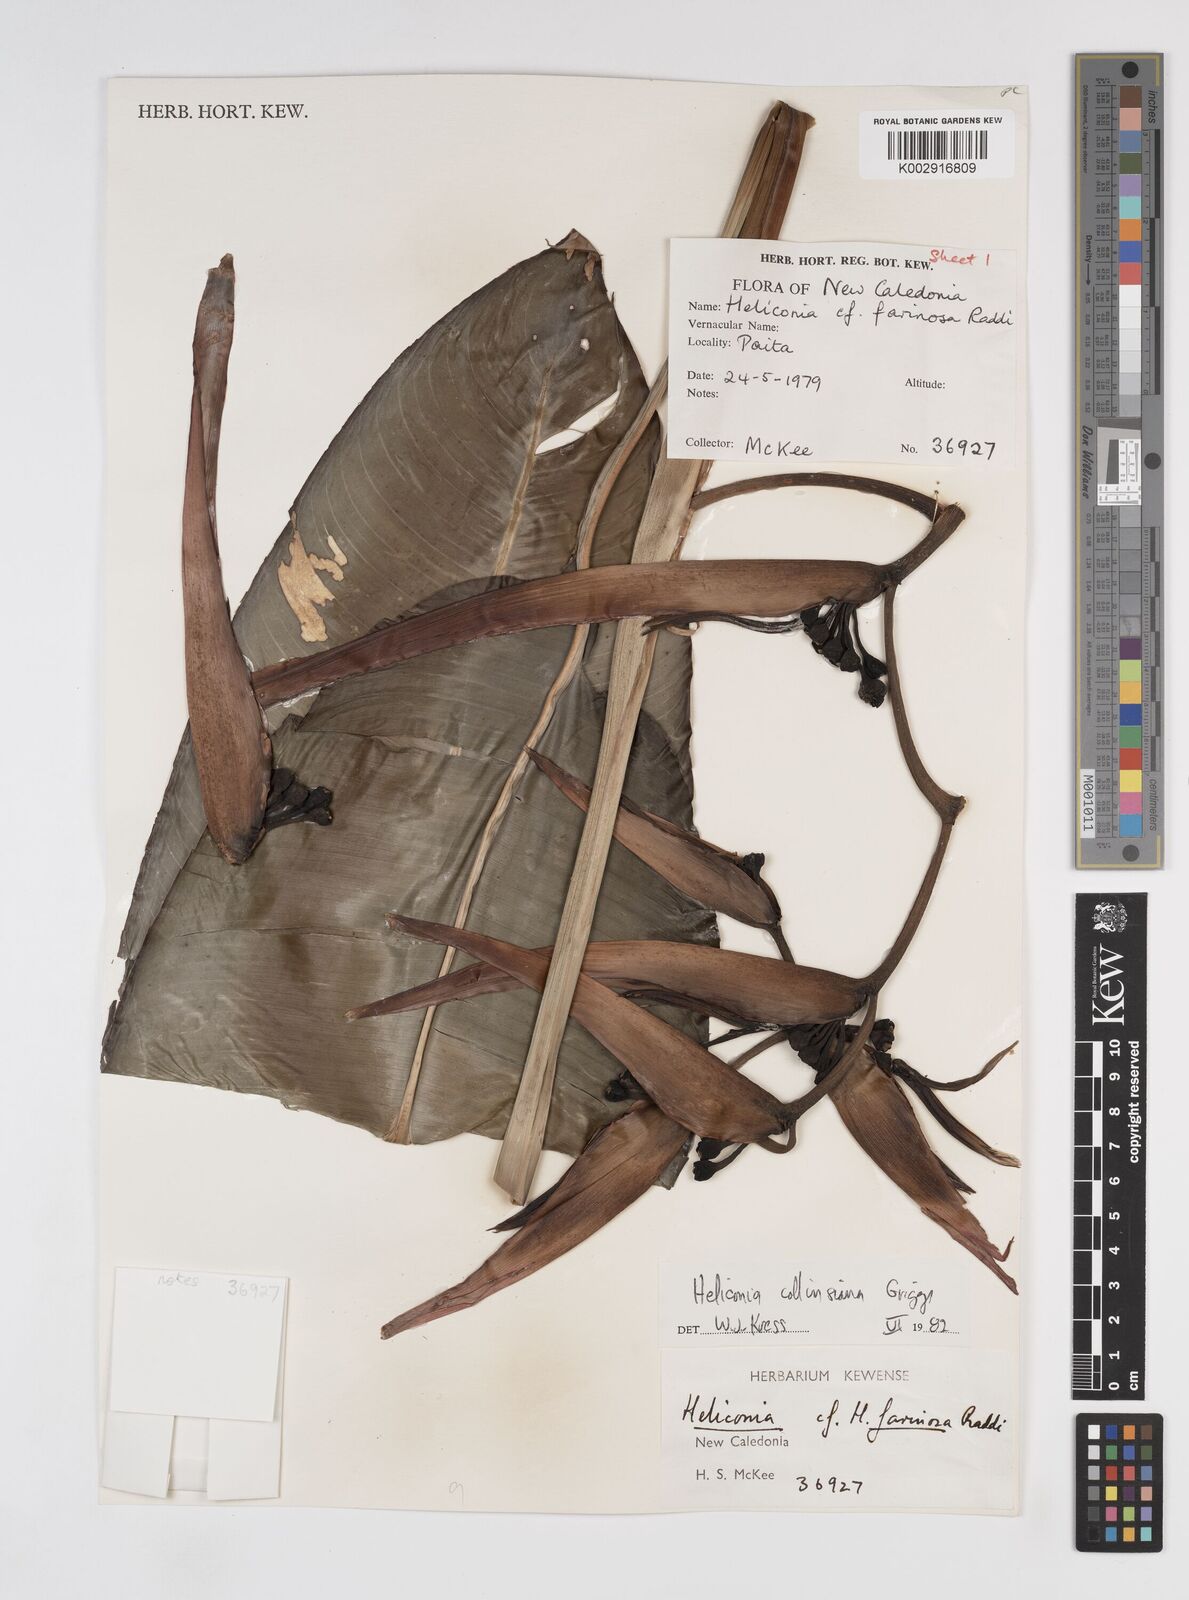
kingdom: Plantae
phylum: Tracheophyta
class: Liliopsida
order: Zingiberales
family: Heliconiaceae
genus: Heliconia
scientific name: Heliconia collinsiana
